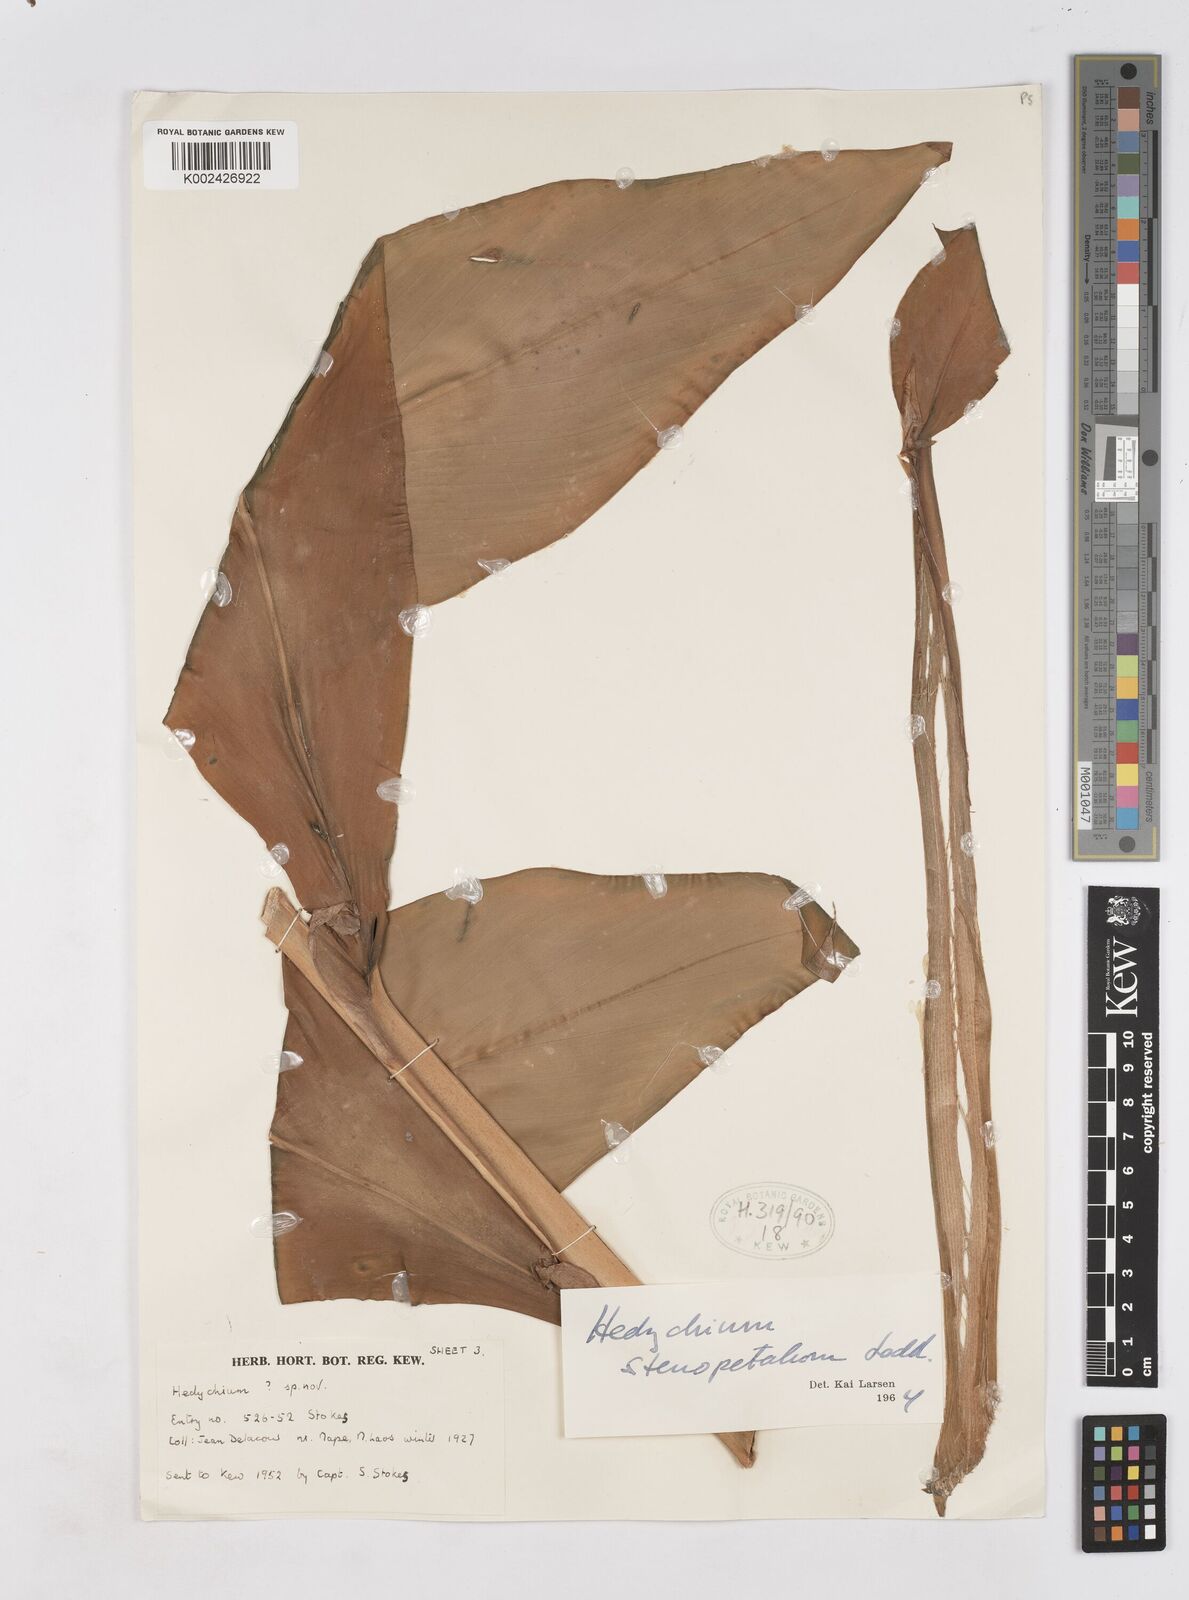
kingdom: Plantae
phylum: Tracheophyta
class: Liliopsida
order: Zingiberales
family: Zingiberaceae
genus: Hedychium
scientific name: Hedychium gardnerianum
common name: Himalayan ginger
